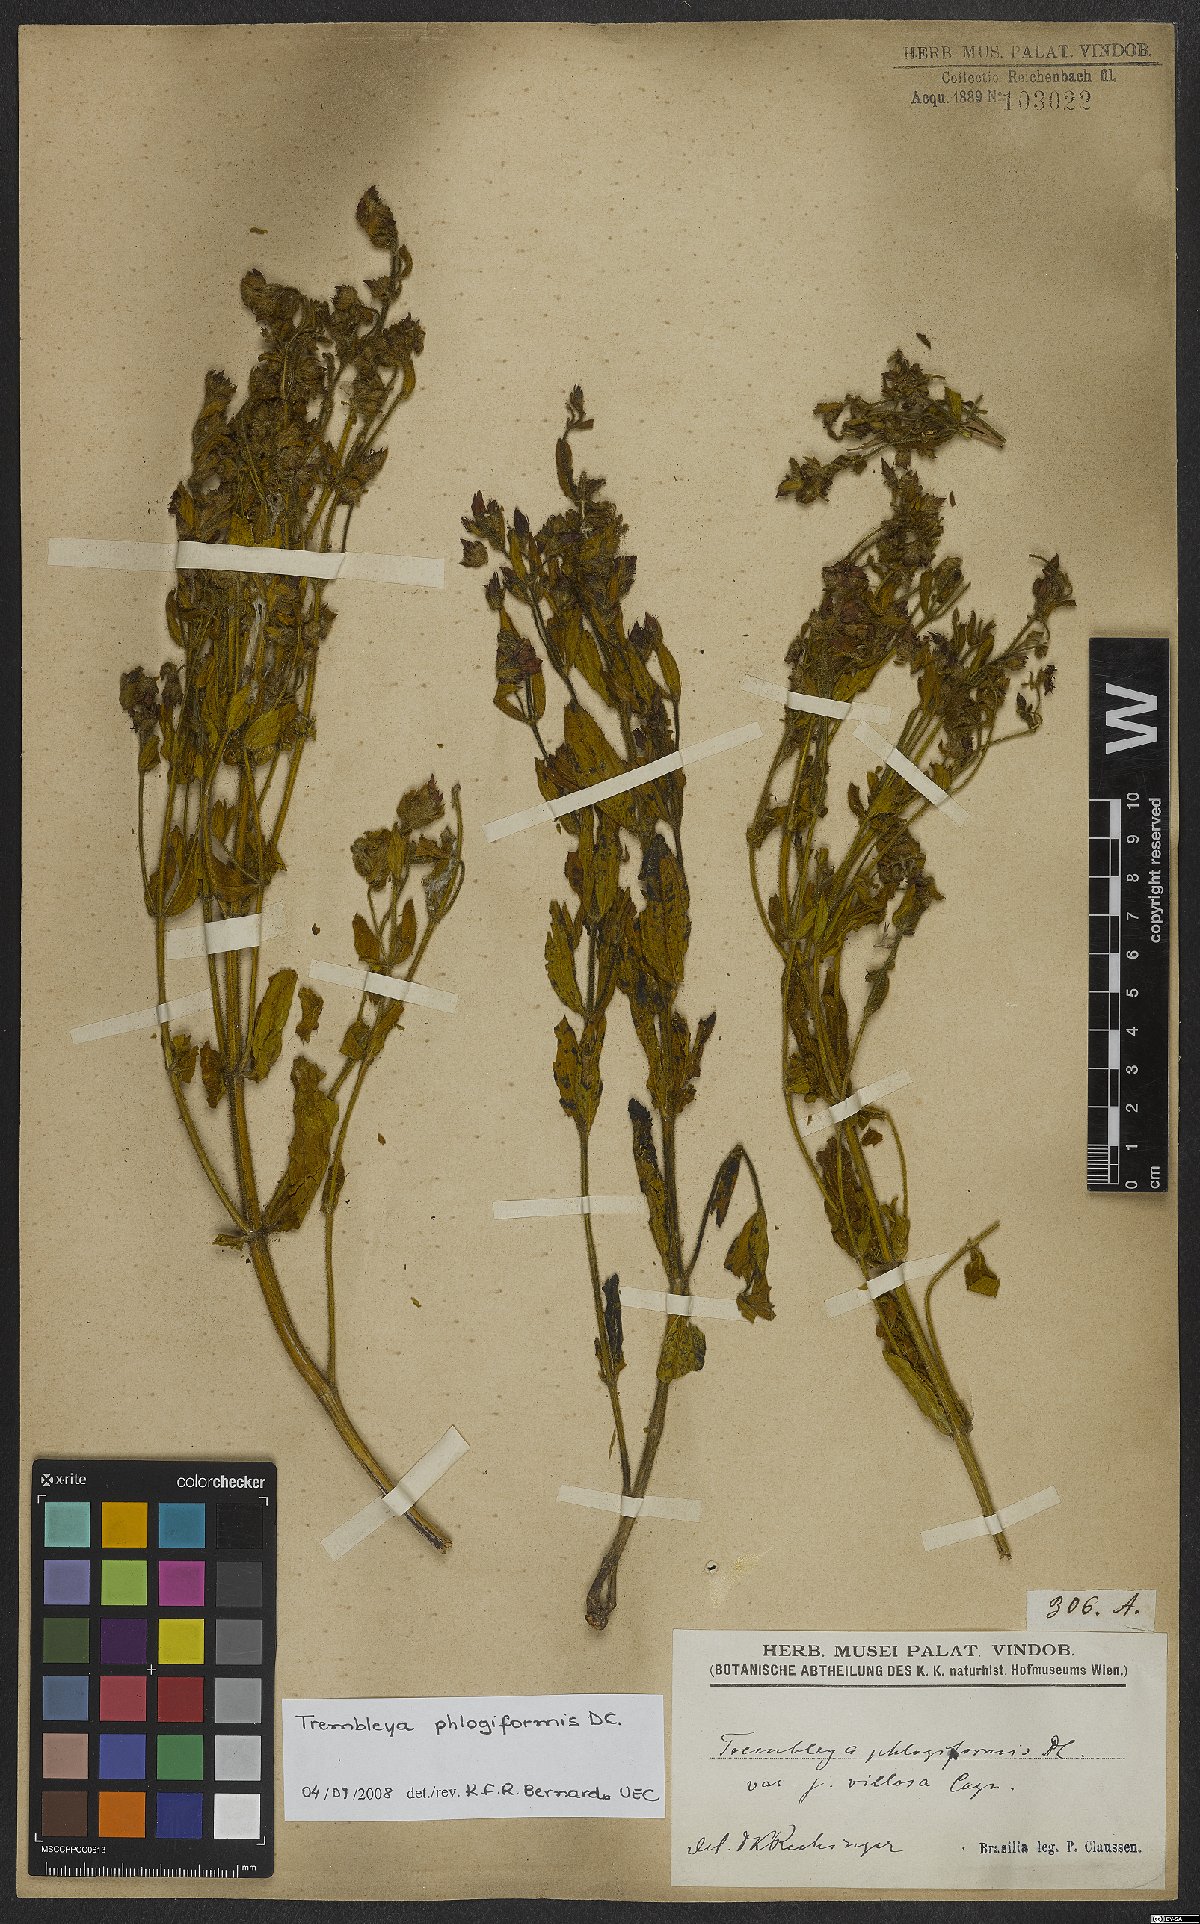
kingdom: Plantae
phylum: Tracheophyta
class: Magnoliopsida
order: Myrtales
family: Melastomataceae
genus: Microlicia
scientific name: Microlicia phlogiformis
